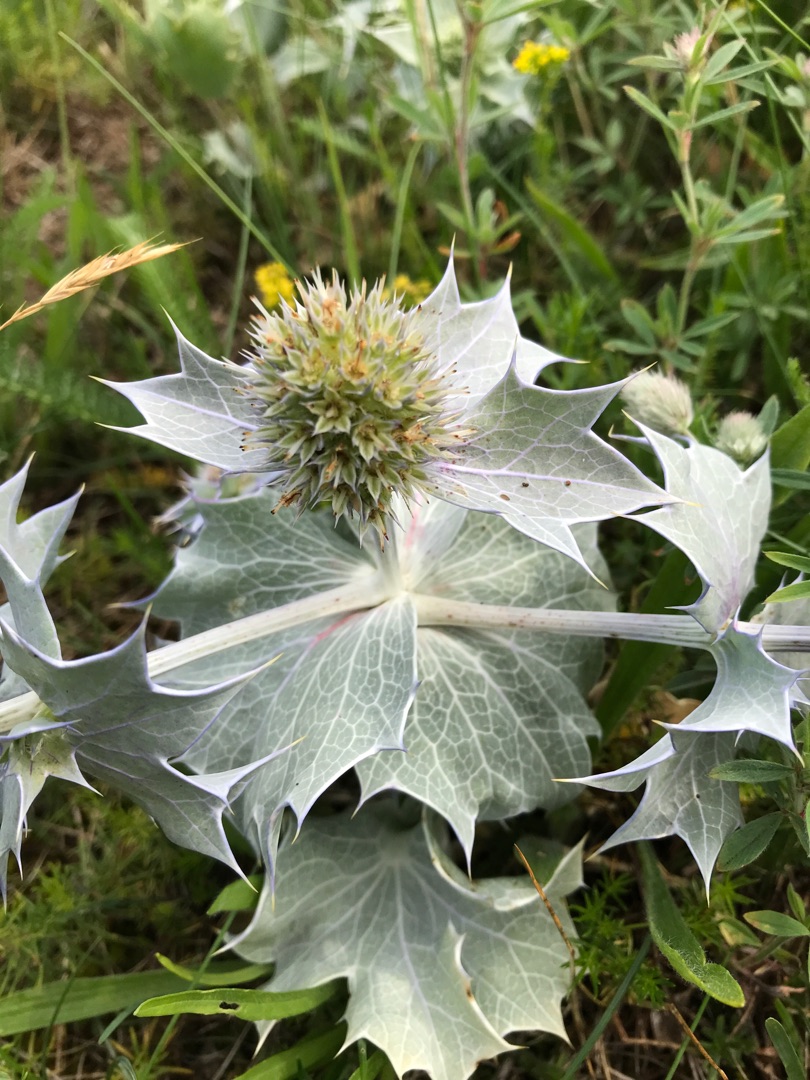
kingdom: Plantae
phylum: Tracheophyta
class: Magnoliopsida
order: Apiales
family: Apiaceae
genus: Eryngium
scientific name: Eryngium maritimum
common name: Strand-mandstro
